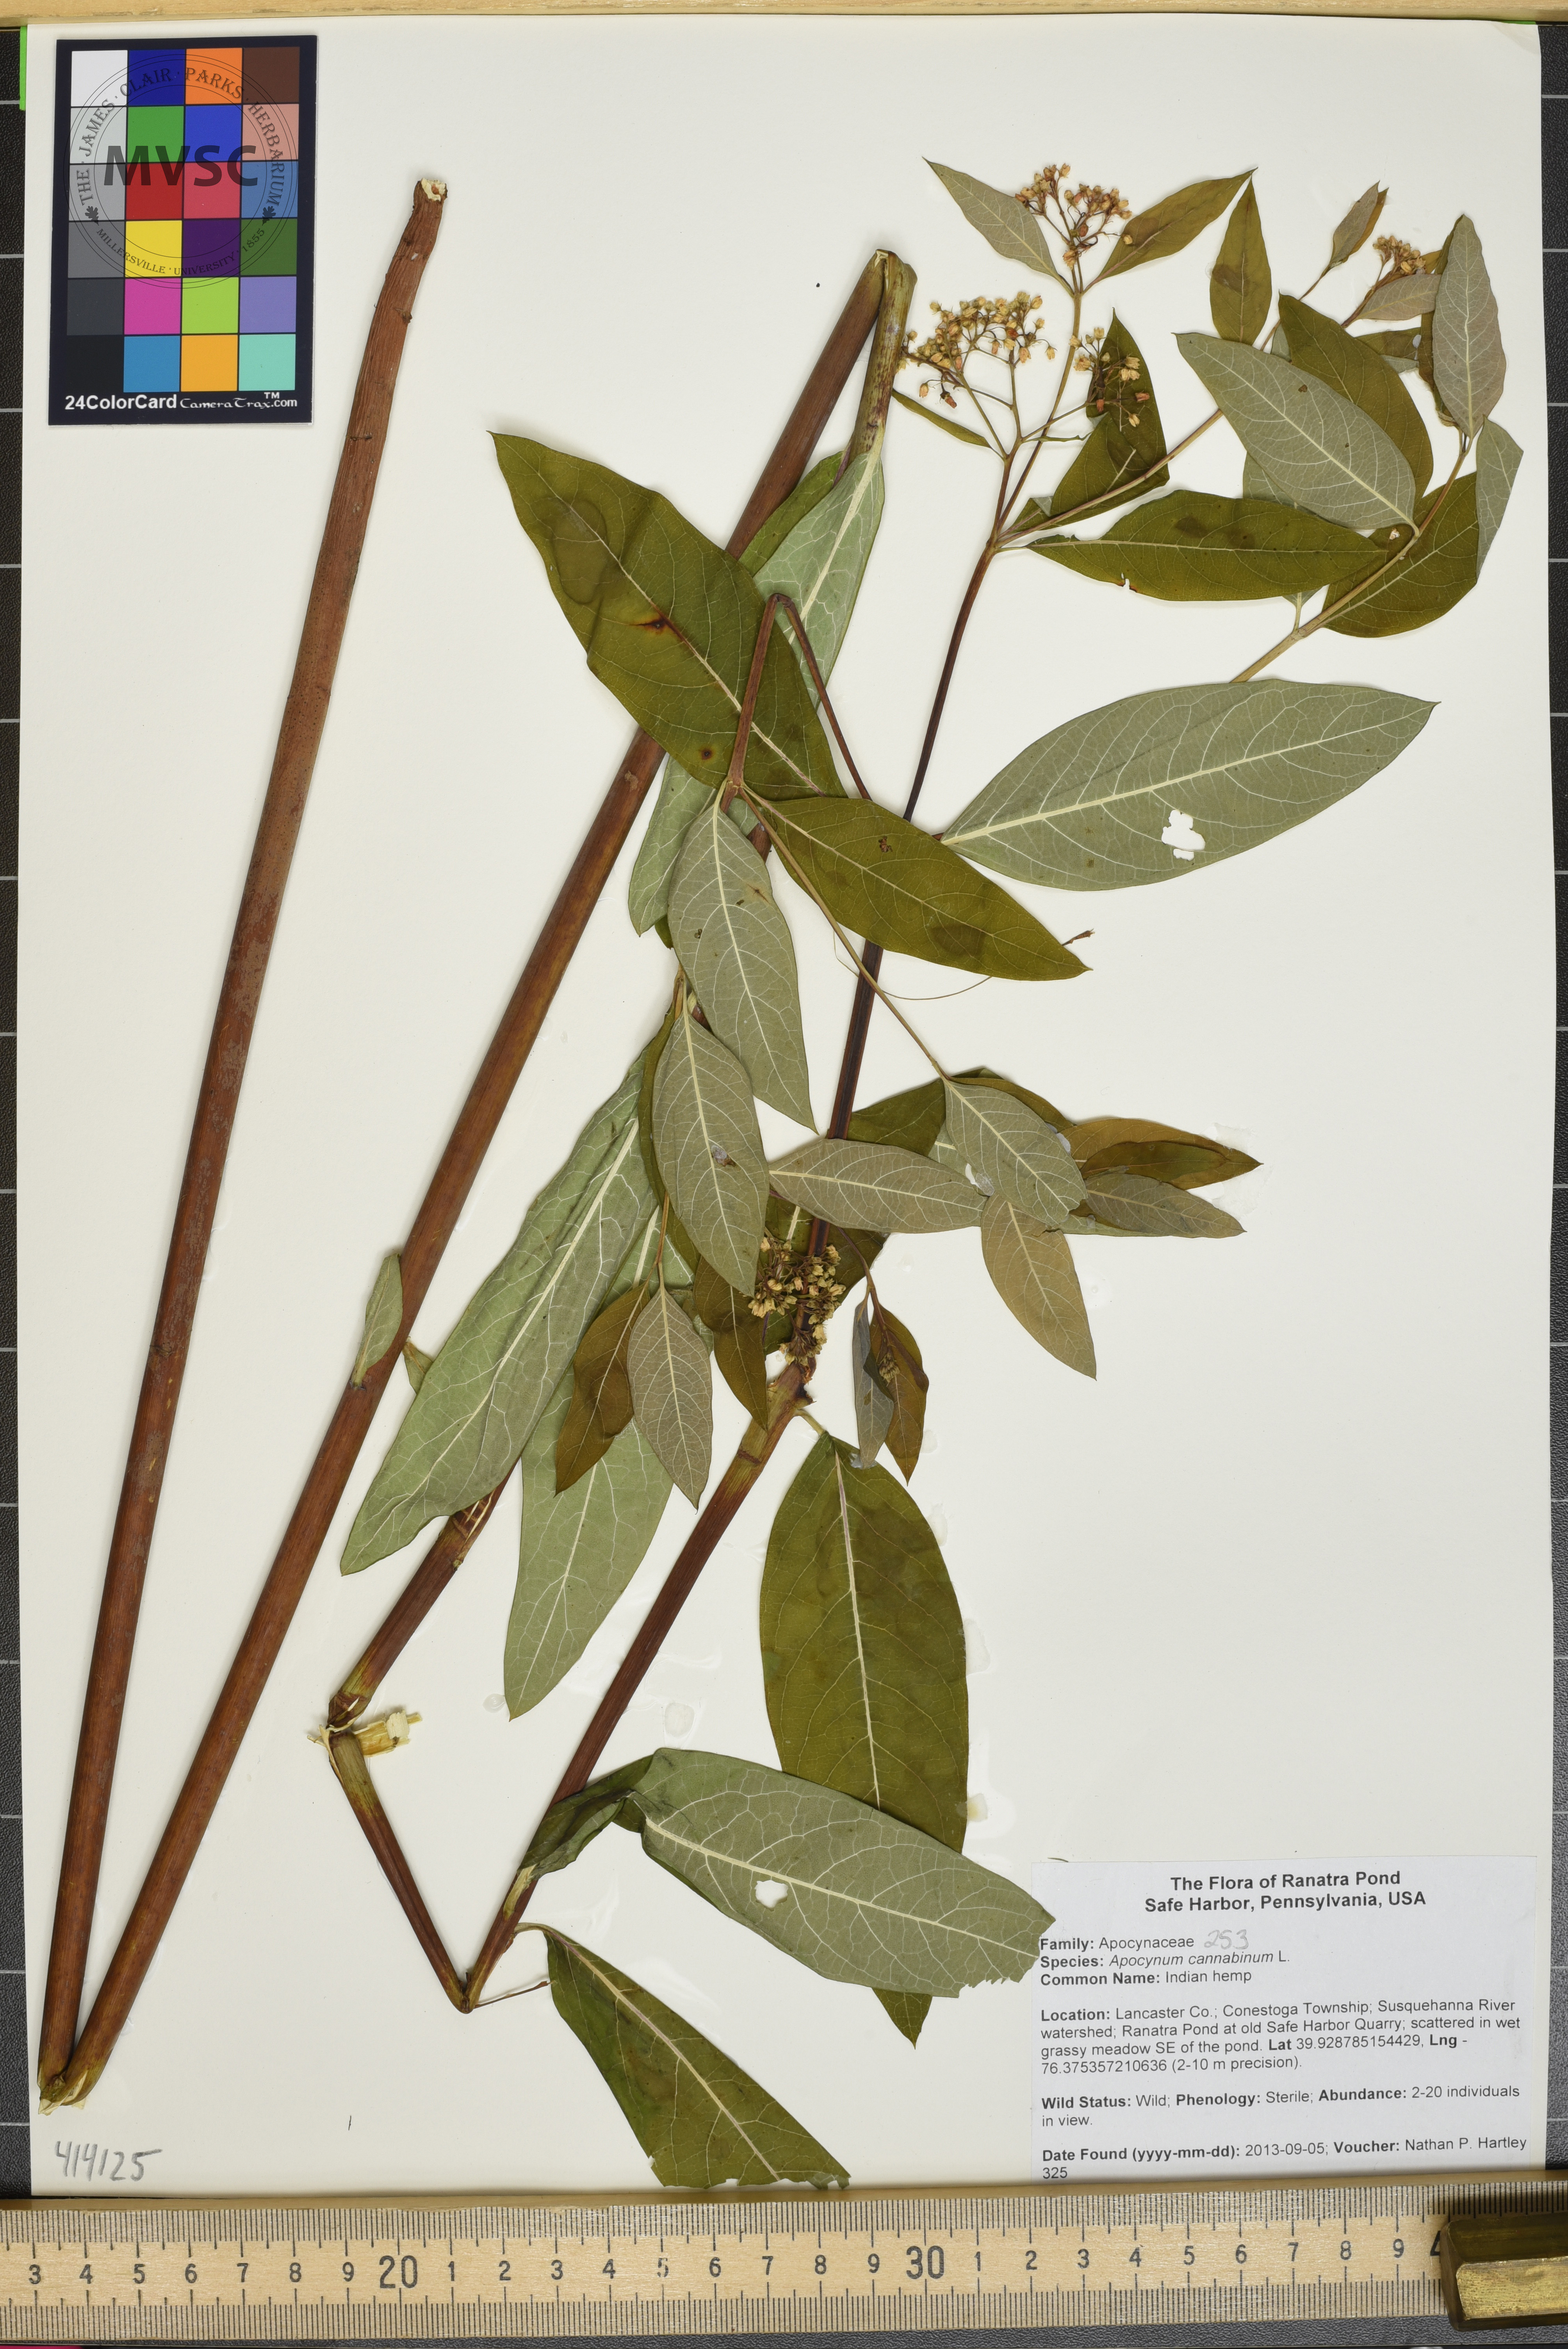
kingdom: Plantae
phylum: Tracheophyta
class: Magnoliopsida
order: Gentianales
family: Apocynaceae
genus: Apocynum
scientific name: Apocynum cannabinum
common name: Indian hemp
